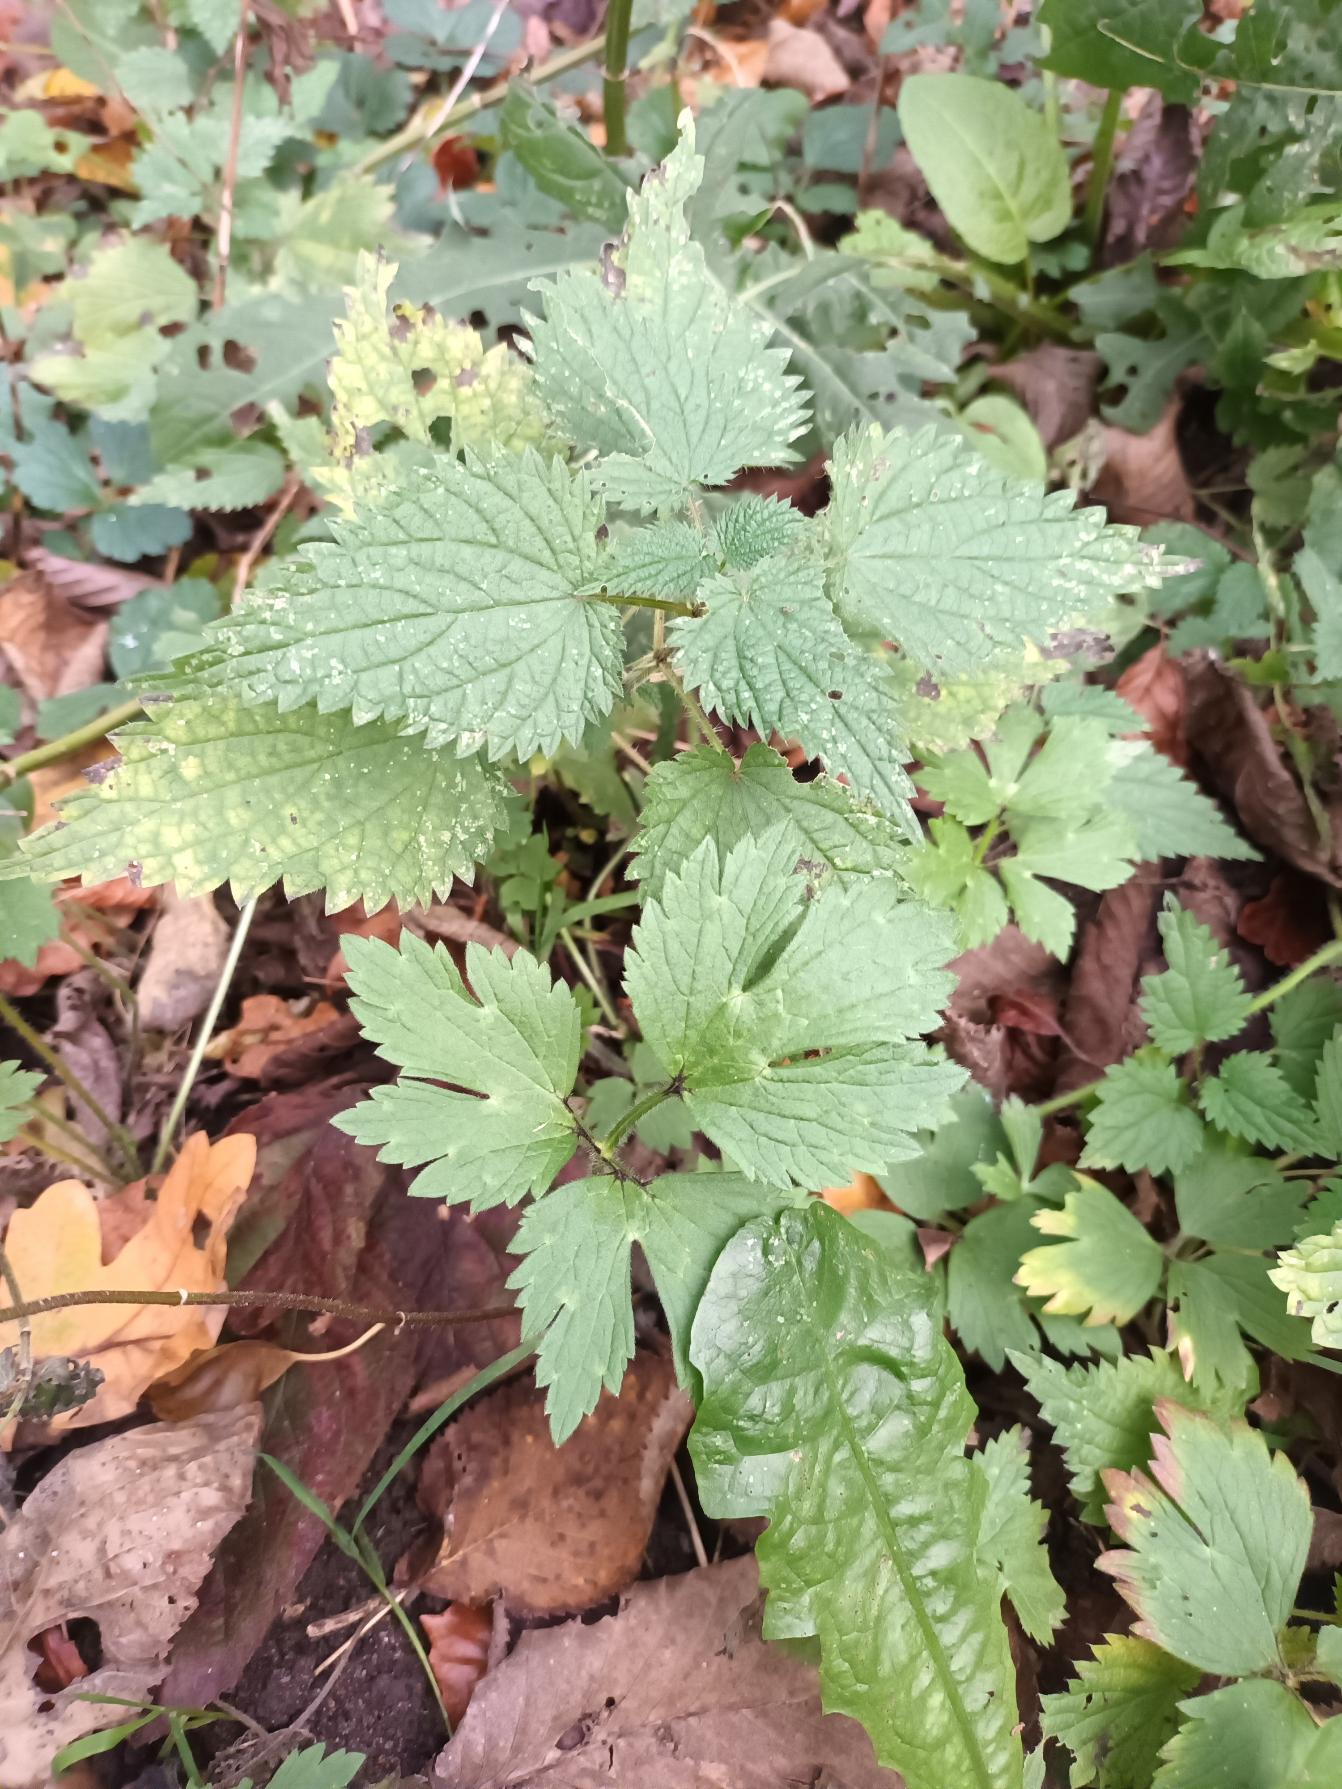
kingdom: Plantae
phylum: Tracheophyta
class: Magnoliopsida
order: Ranunculales
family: Ranunculaceae
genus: Ranunculus
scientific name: Ranunculus repens
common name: Lav ranunkel
